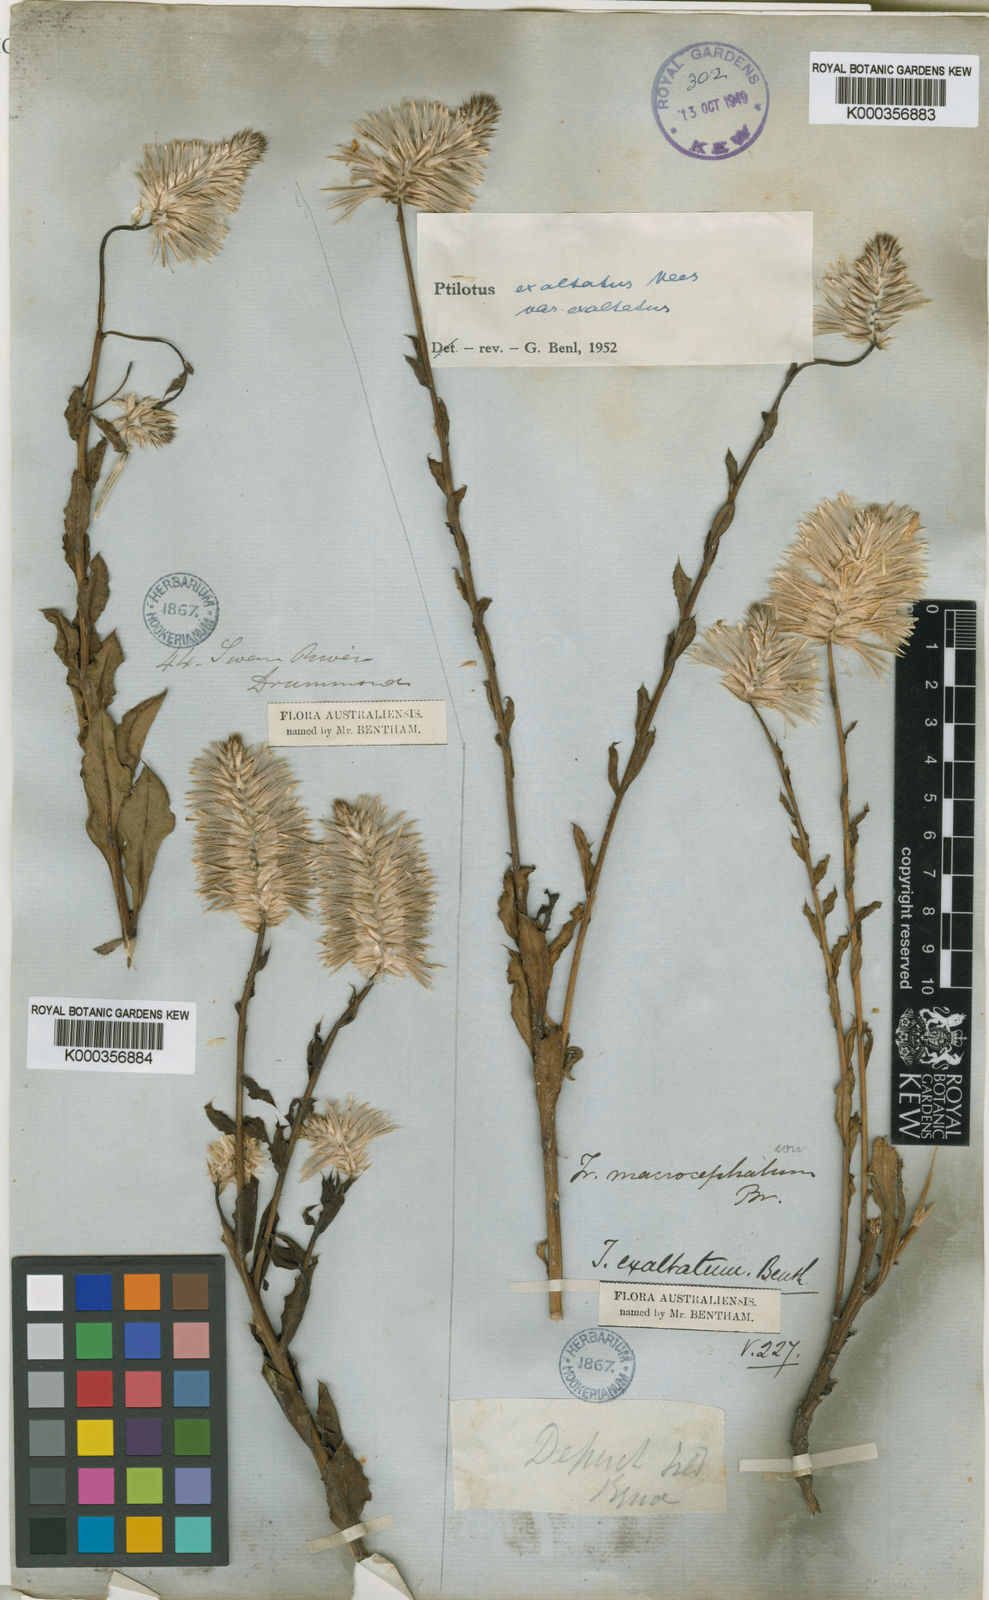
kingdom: Plantae
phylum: Tracheophyta
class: Magnoliopsida
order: Caryophyllales
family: Amaranthaceae
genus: Ptilotus
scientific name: Ptilotus
